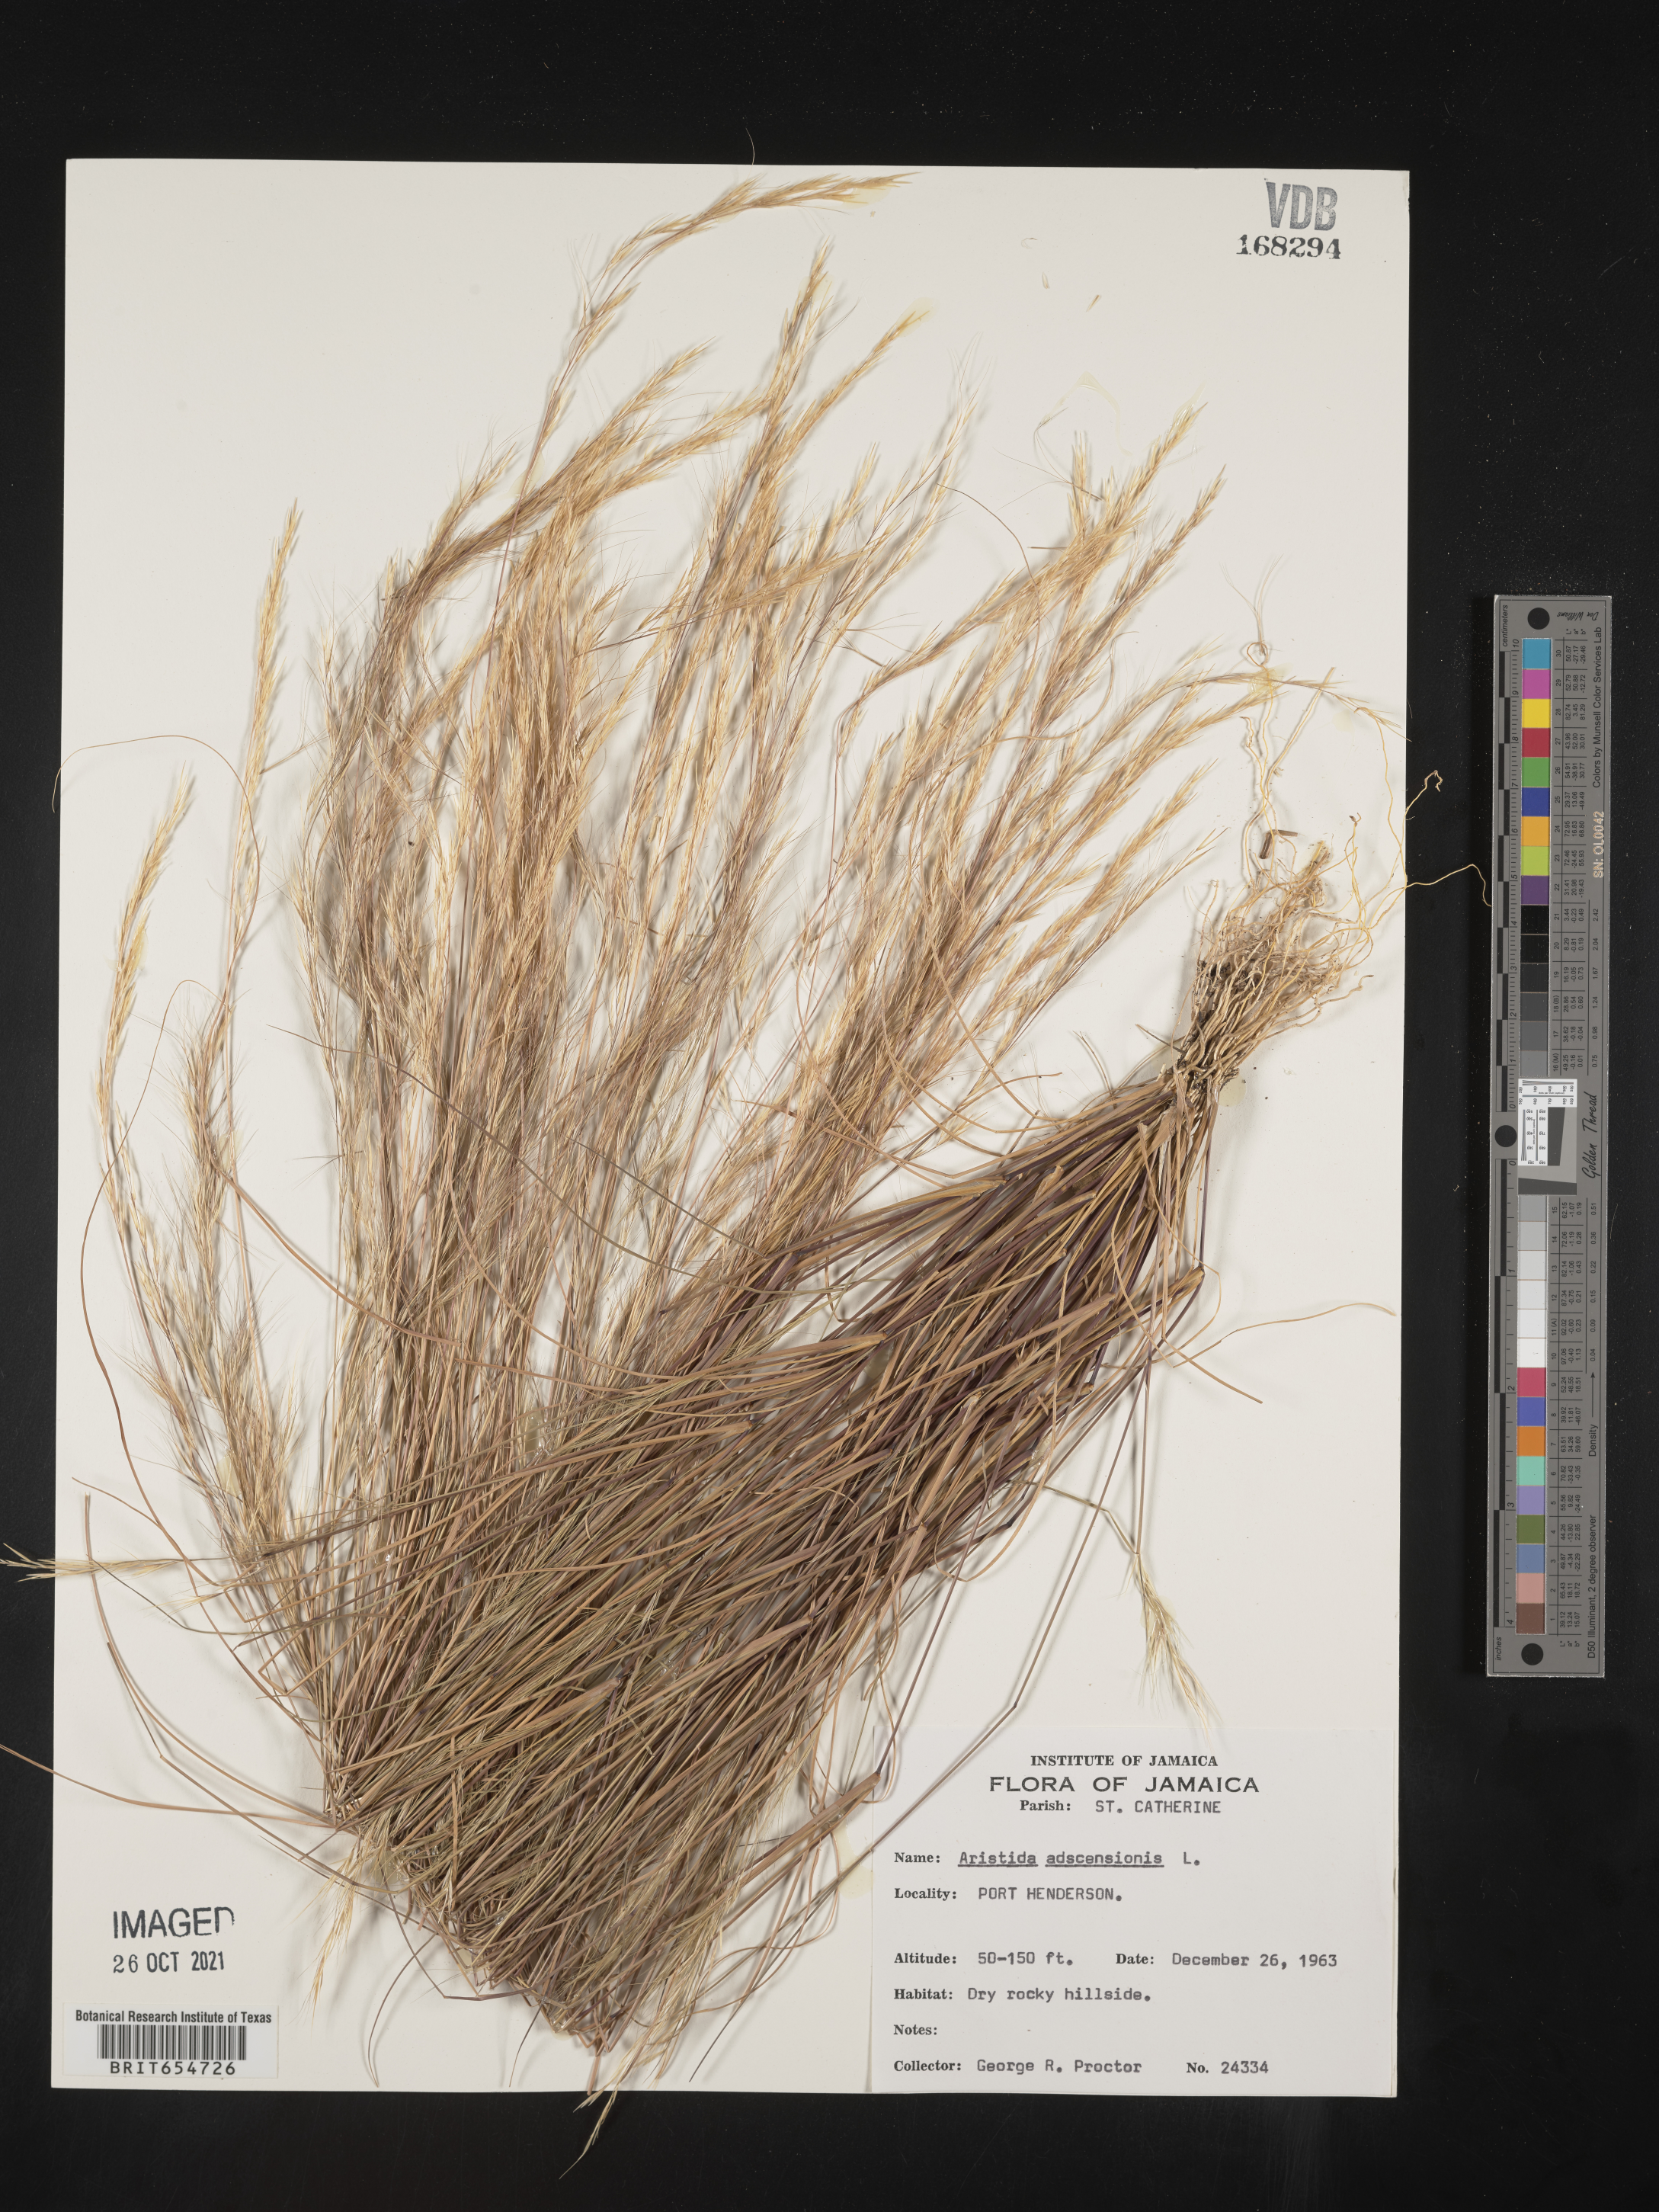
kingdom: Plantae
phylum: Tracheophyta
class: Liliopsida
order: Poales
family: Poaceae
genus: Aristida
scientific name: Aristida
